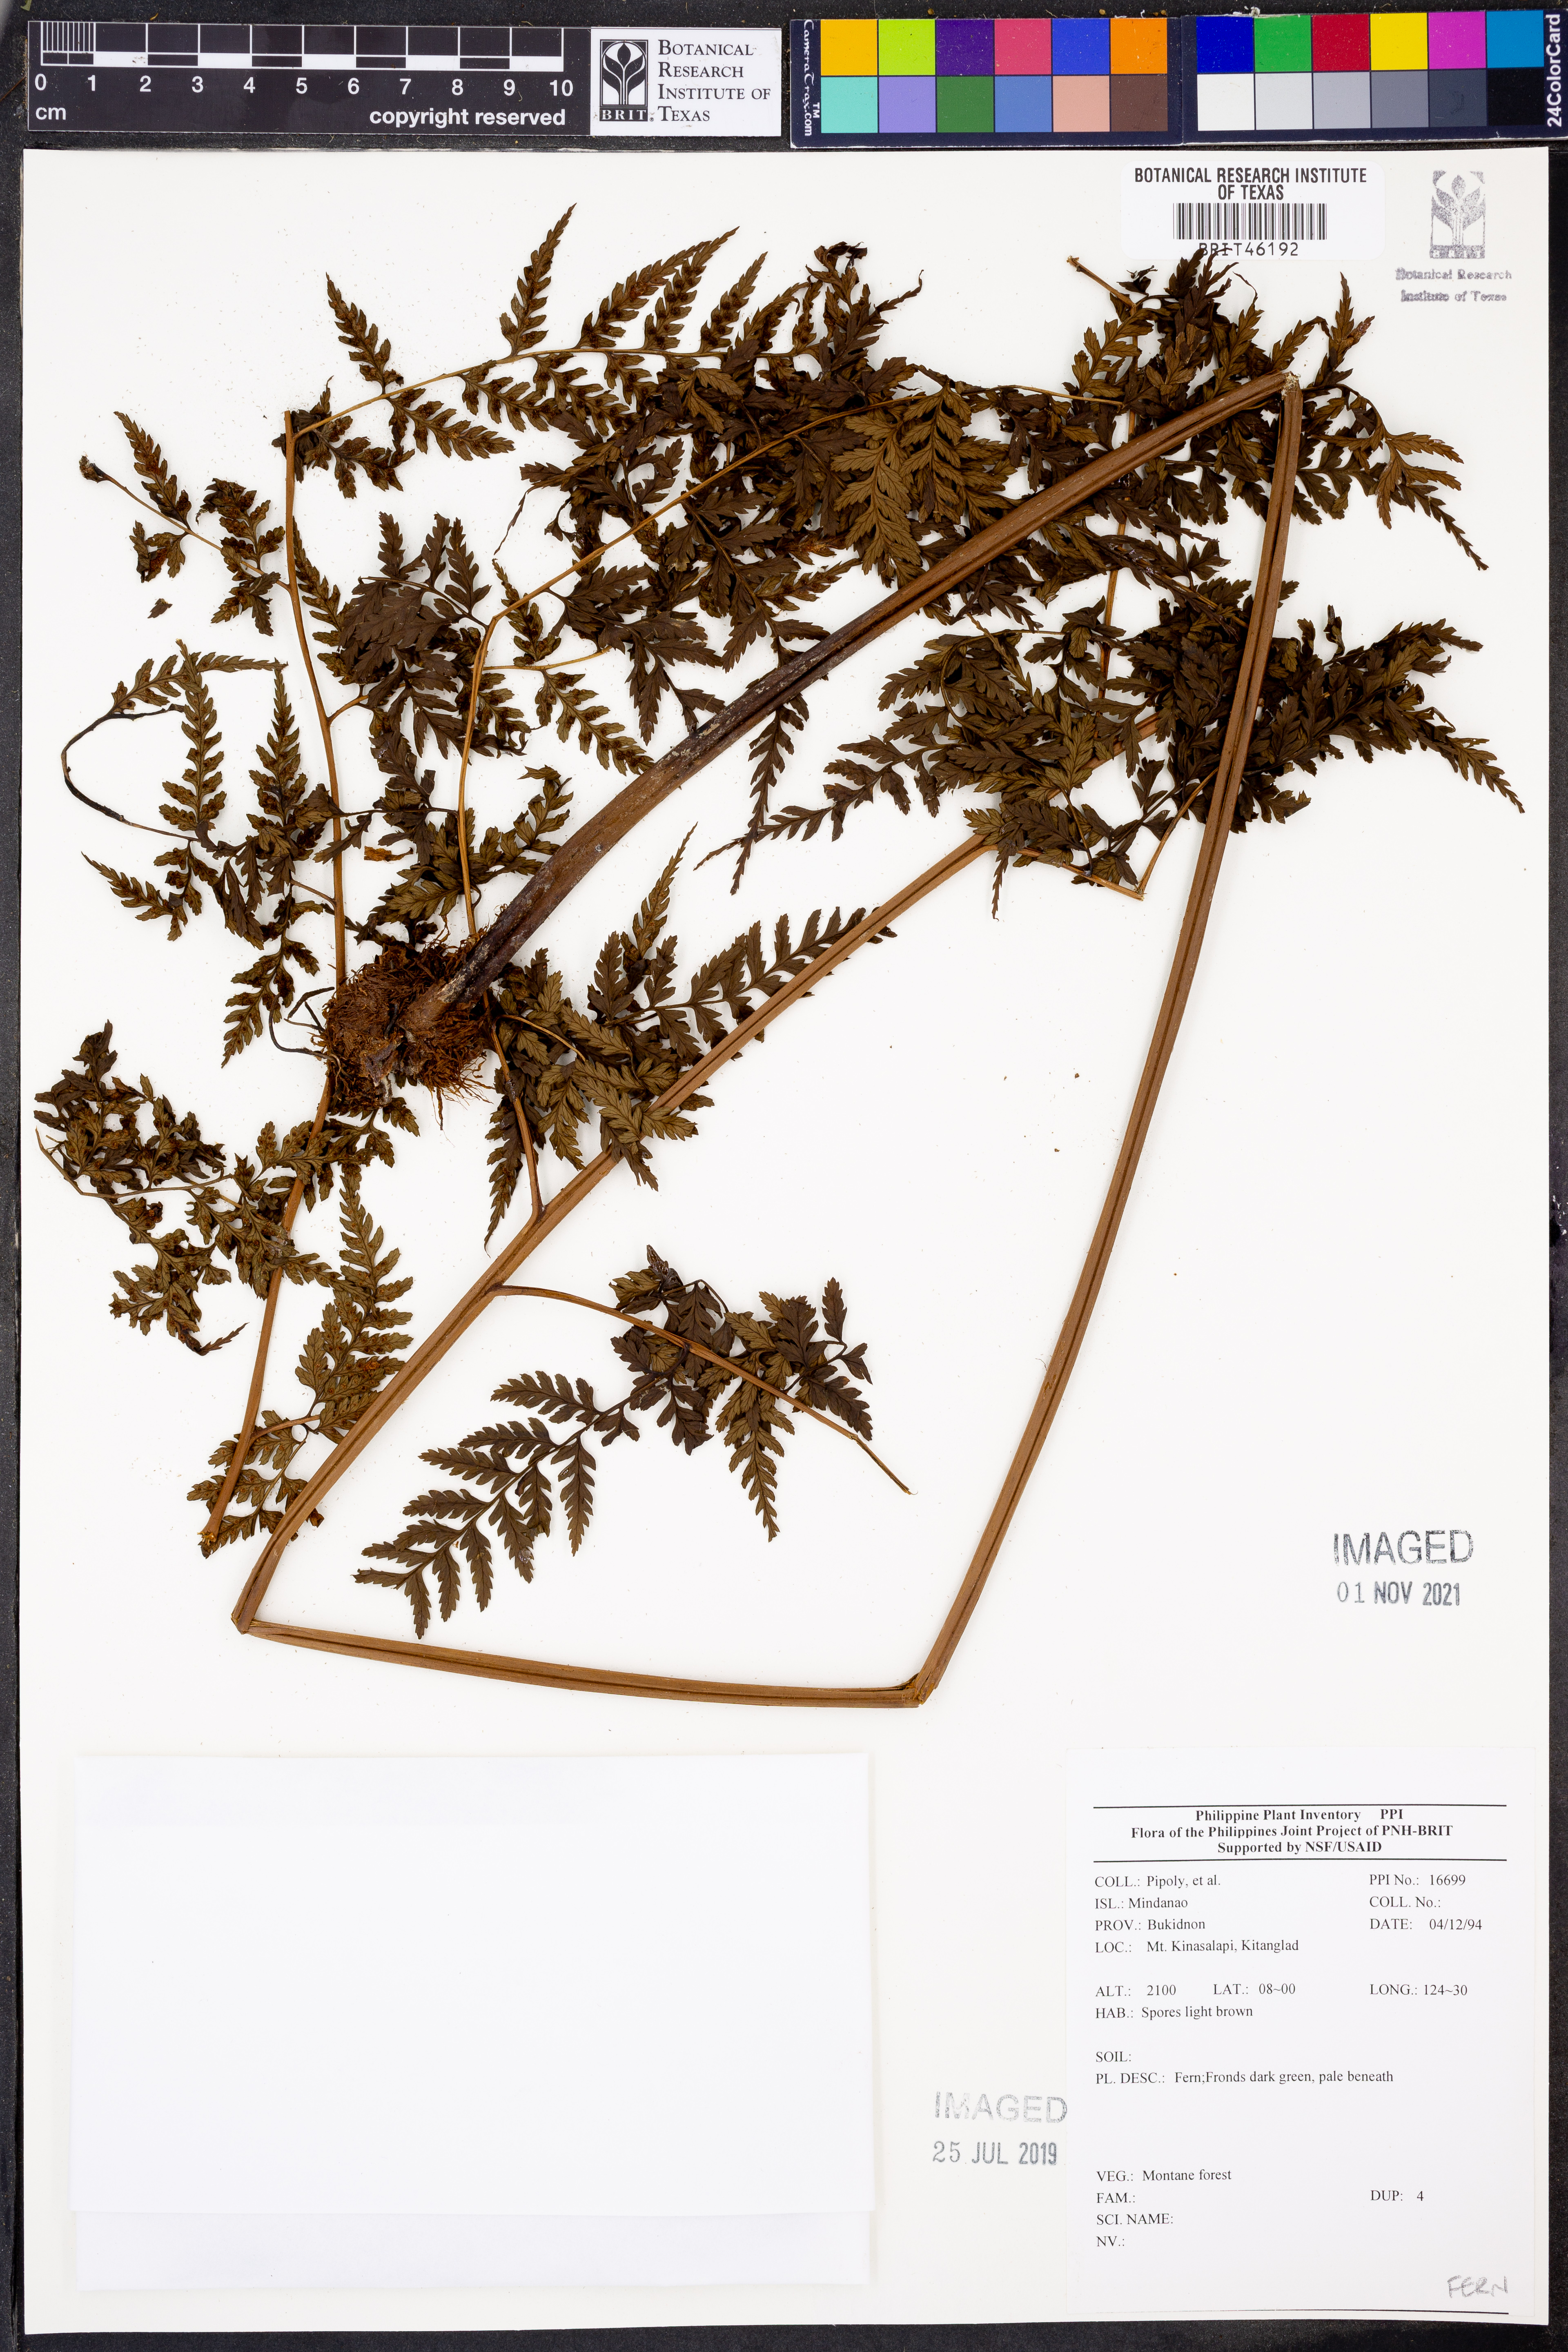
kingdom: Plantae
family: Pteridophyta
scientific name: Pteridophyta
